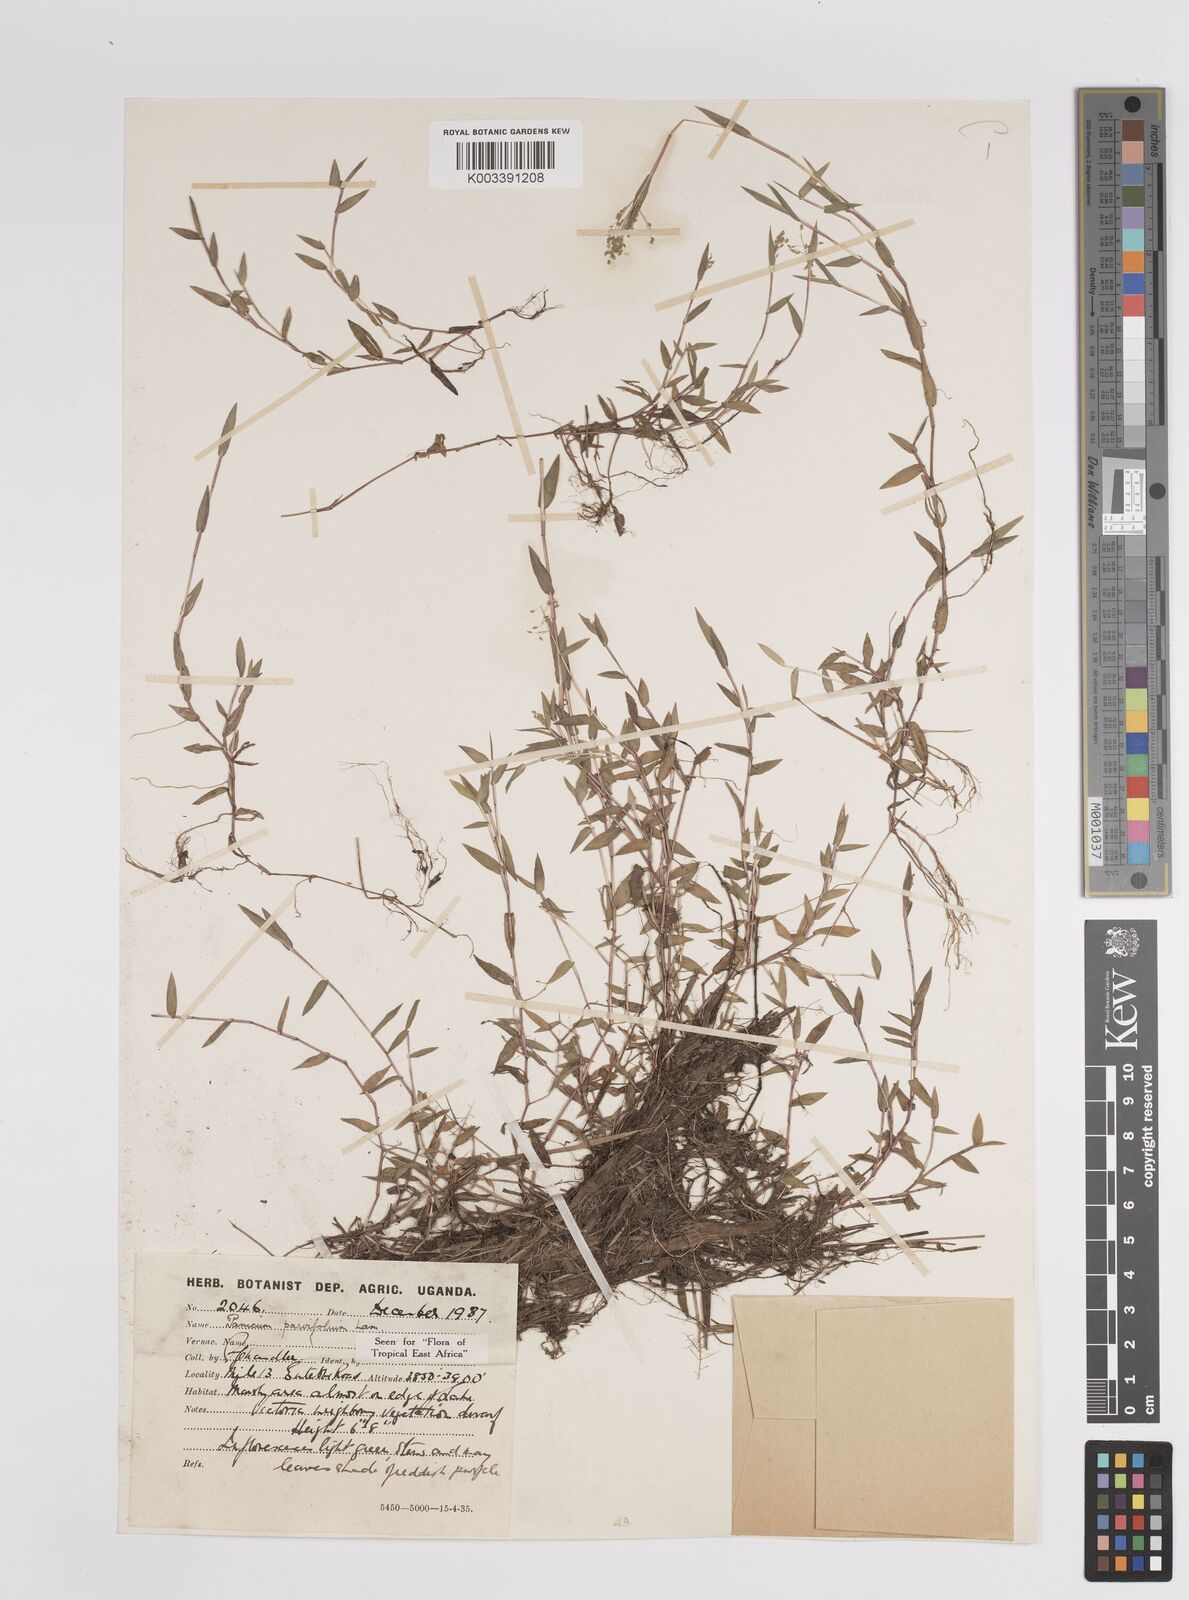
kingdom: Plantae
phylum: Tracheophyta
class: Liliopsida
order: Poales
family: Poaceae
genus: Trichanthecium
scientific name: Trichanthecium parvifolium
